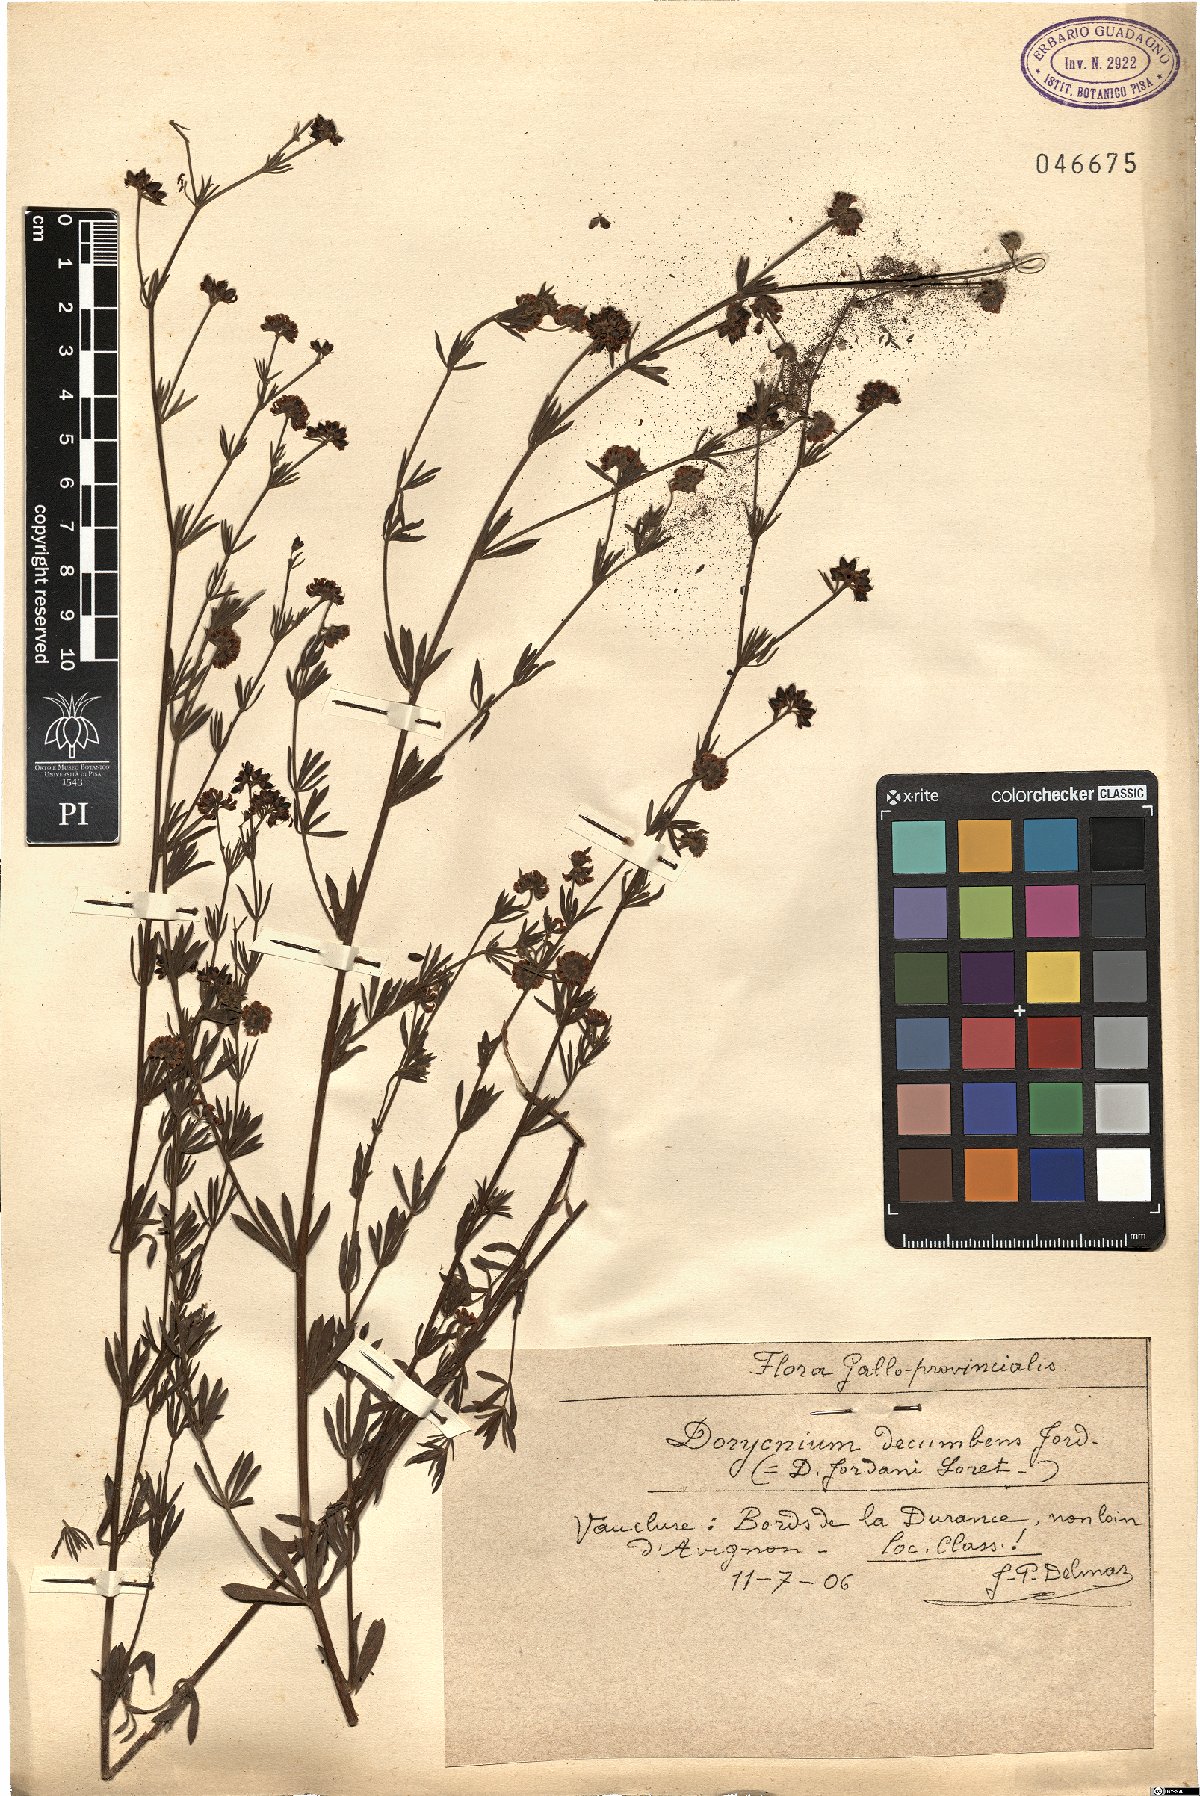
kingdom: Plantae
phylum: Tracheophyta
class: Magnoliopsida
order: Fabales
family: Fabaceae
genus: Lotus
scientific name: Lotus dorycnium
